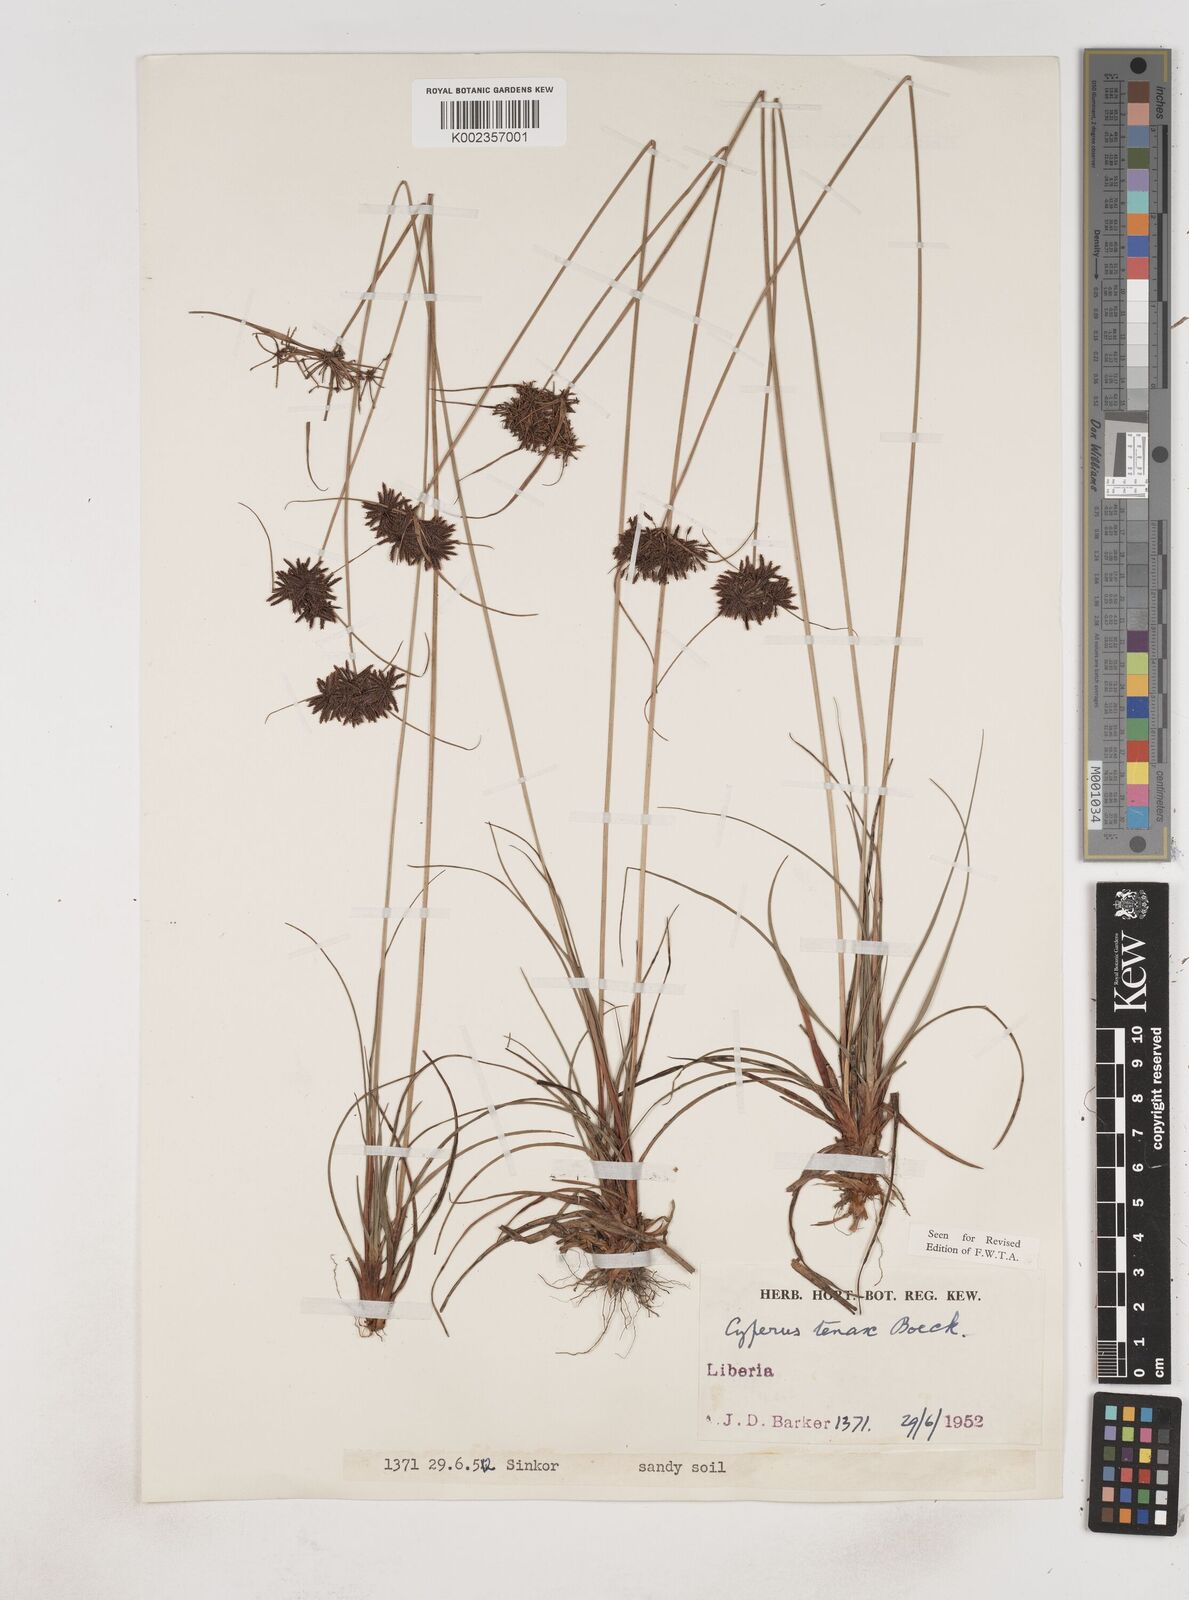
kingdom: Plantae
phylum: Tracheophyta
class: Liliopsida
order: Poales
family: Cyperaceae
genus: Cyperus
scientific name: Cyperus tenax
